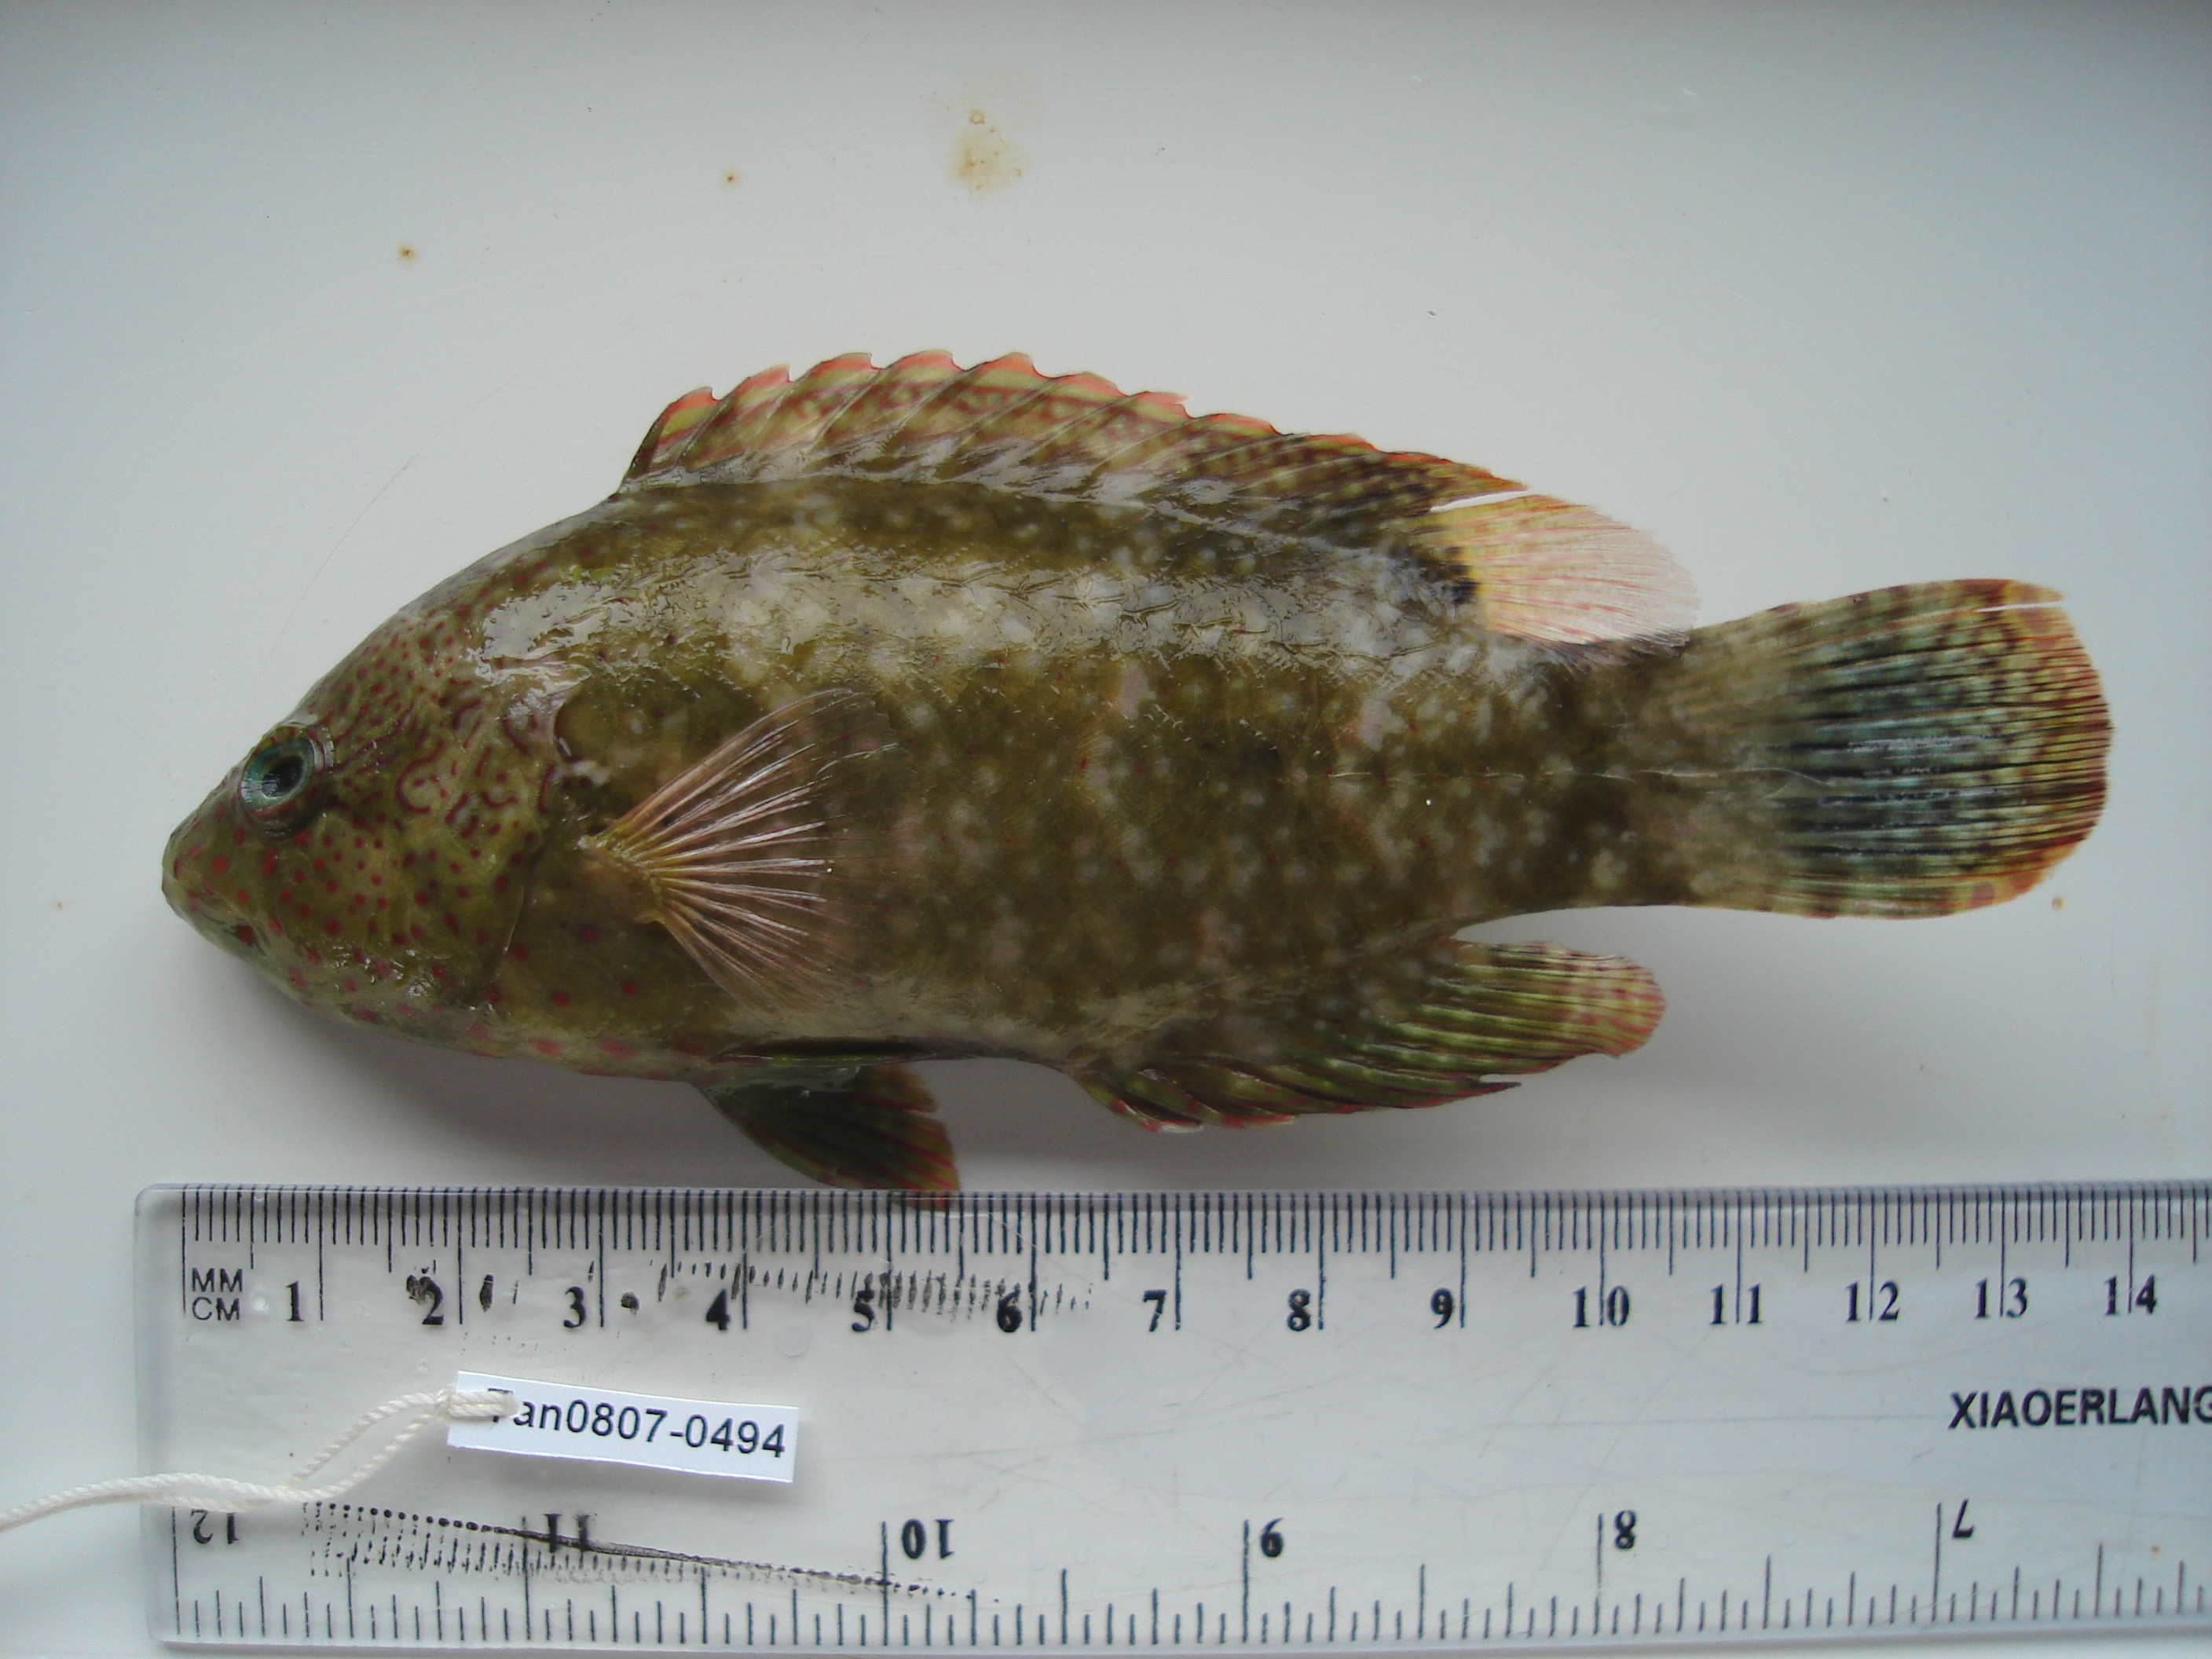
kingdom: Animalia
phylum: Chordata
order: Perciformes
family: Labridae
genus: Cheilinus
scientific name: Cheilinus chlorourus
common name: Floral wrasse
